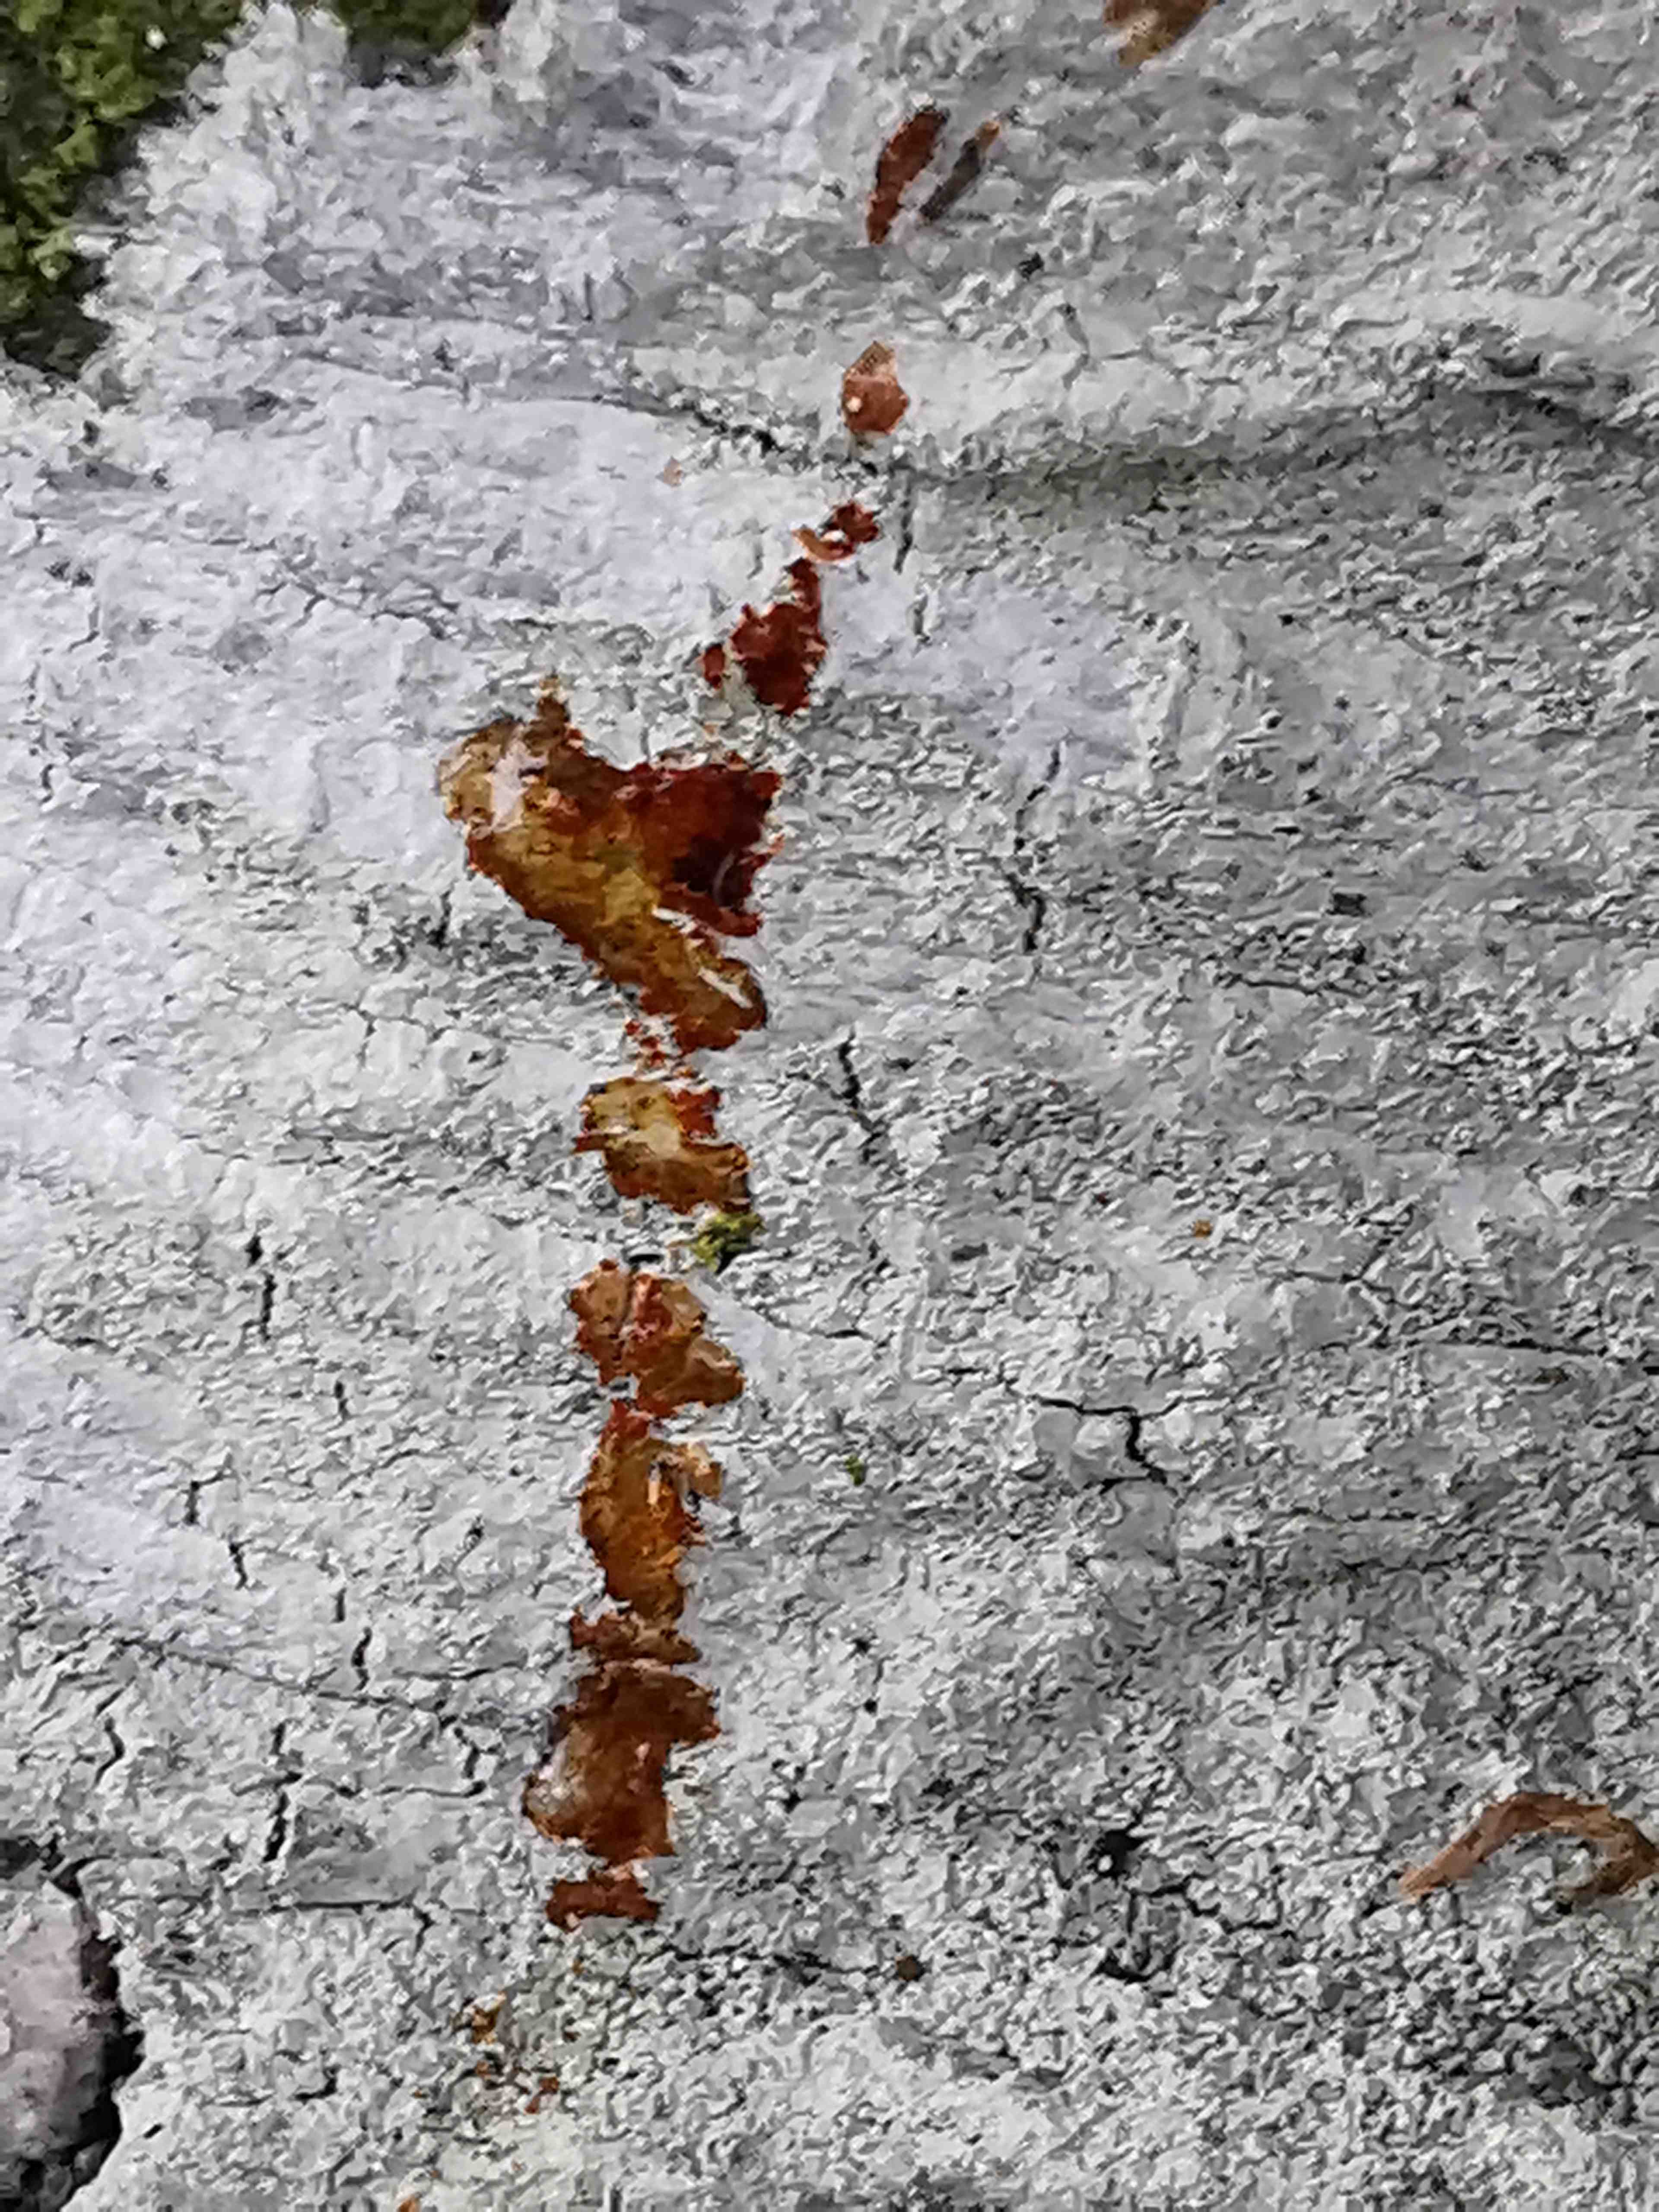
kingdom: Fungi
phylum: Ascomycota
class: Lecanoromycetes
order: Ostropales
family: Phlyctidaceae
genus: Phlyctis
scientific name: Phlyctis argena
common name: almindelig sølvlav
